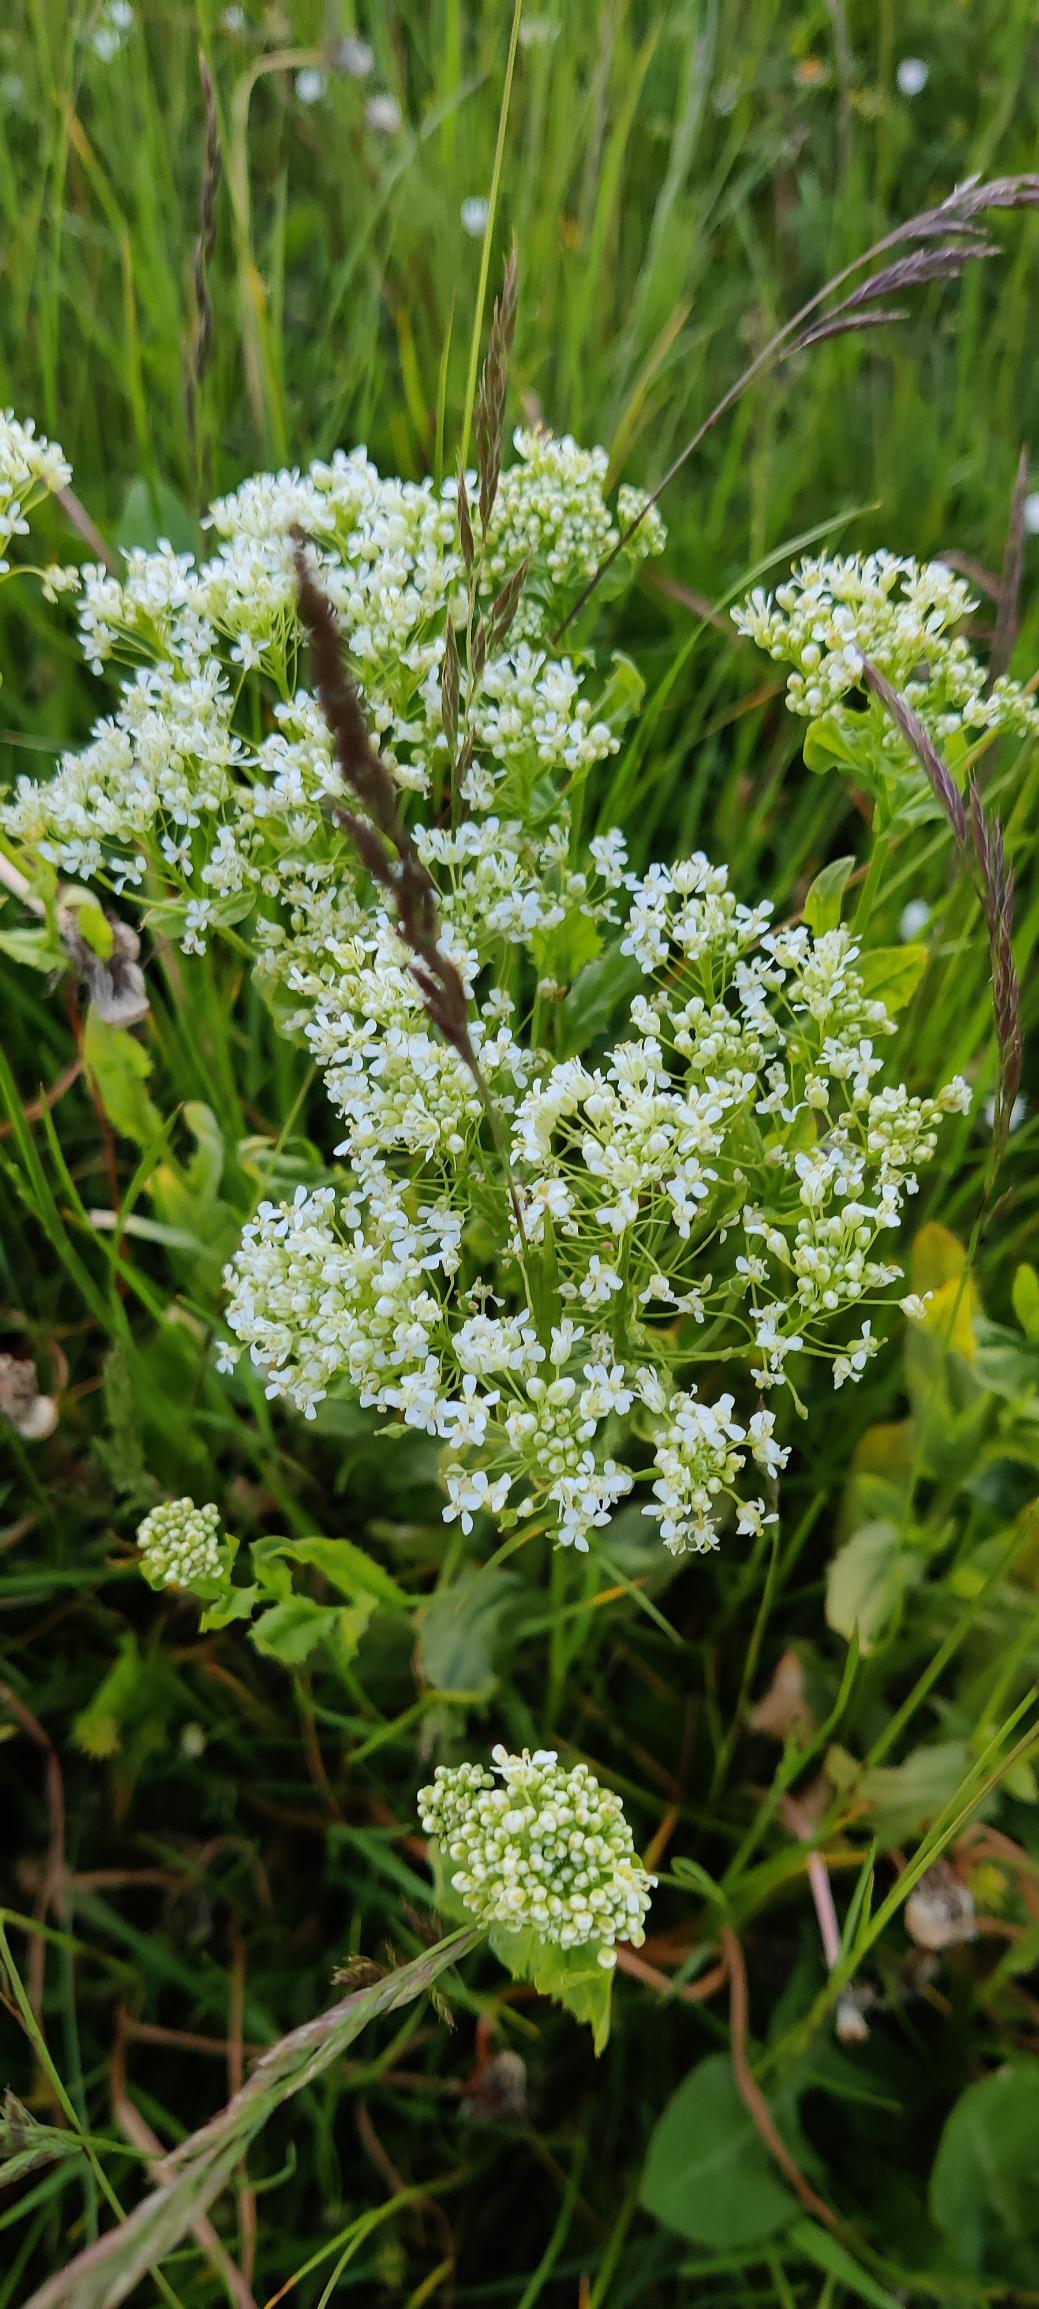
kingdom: Plantae
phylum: Tracheophyta
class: Magnoliopsida
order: Brassicales
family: Brassicaceae
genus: Lepidium
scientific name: Lepidium draba
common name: Hjerte-karse
